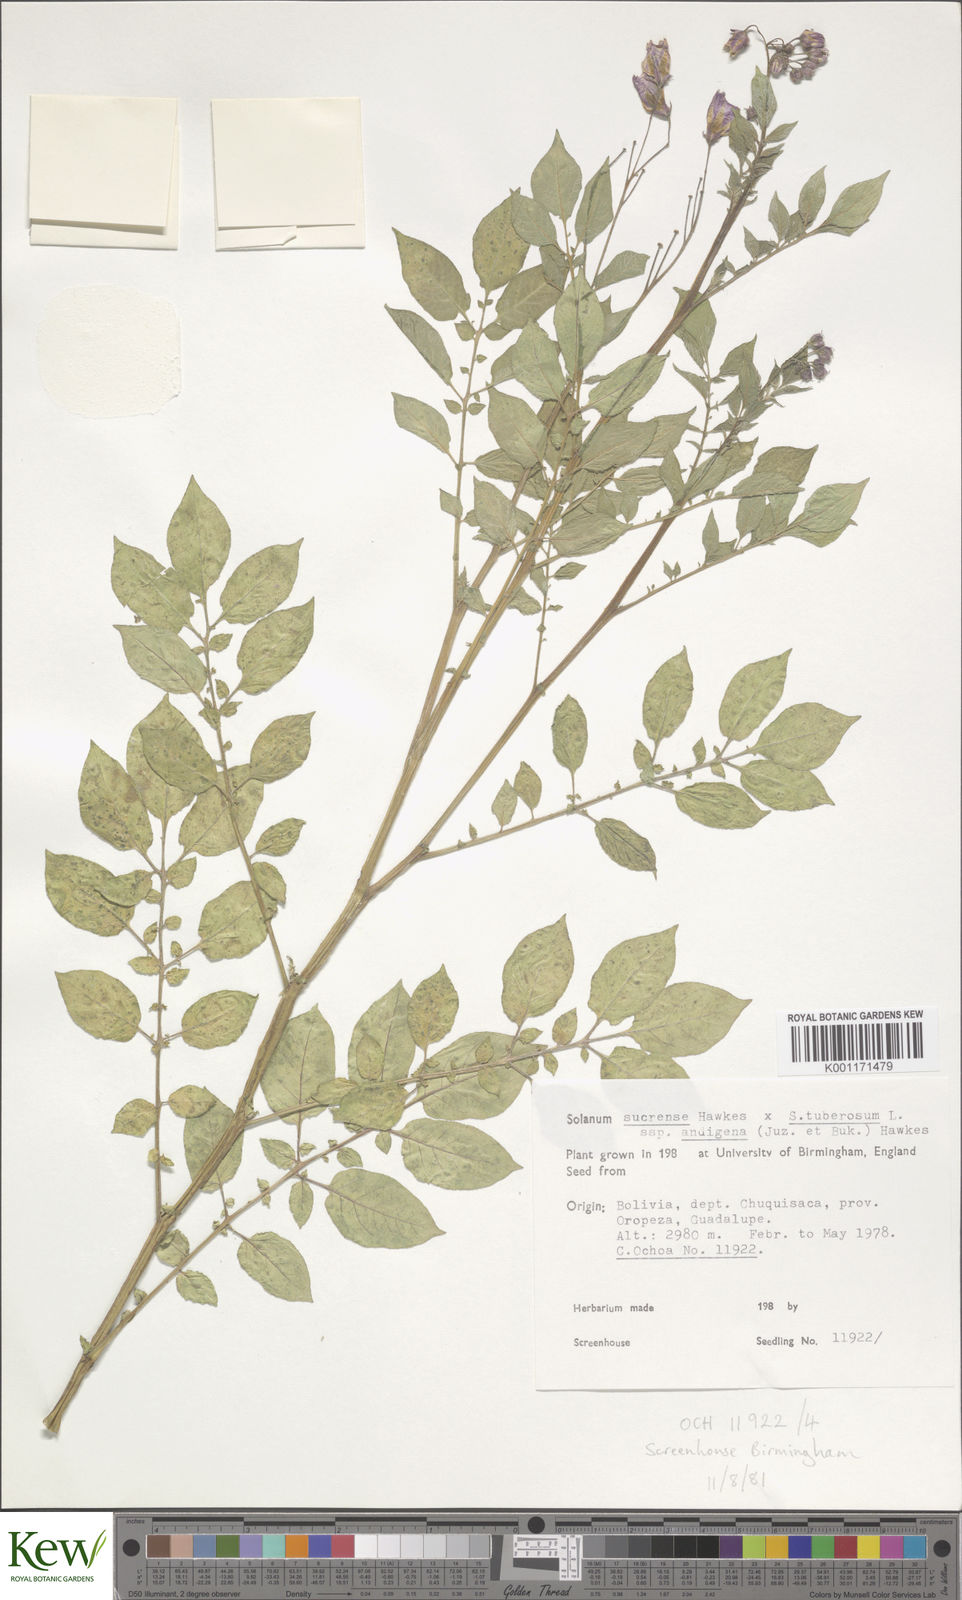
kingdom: Plantae
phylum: Tracheophyta
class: Magnoliopsida
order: Solanales
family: Solanaceae
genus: Solanum
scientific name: Solanum tuberosum
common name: Potato
